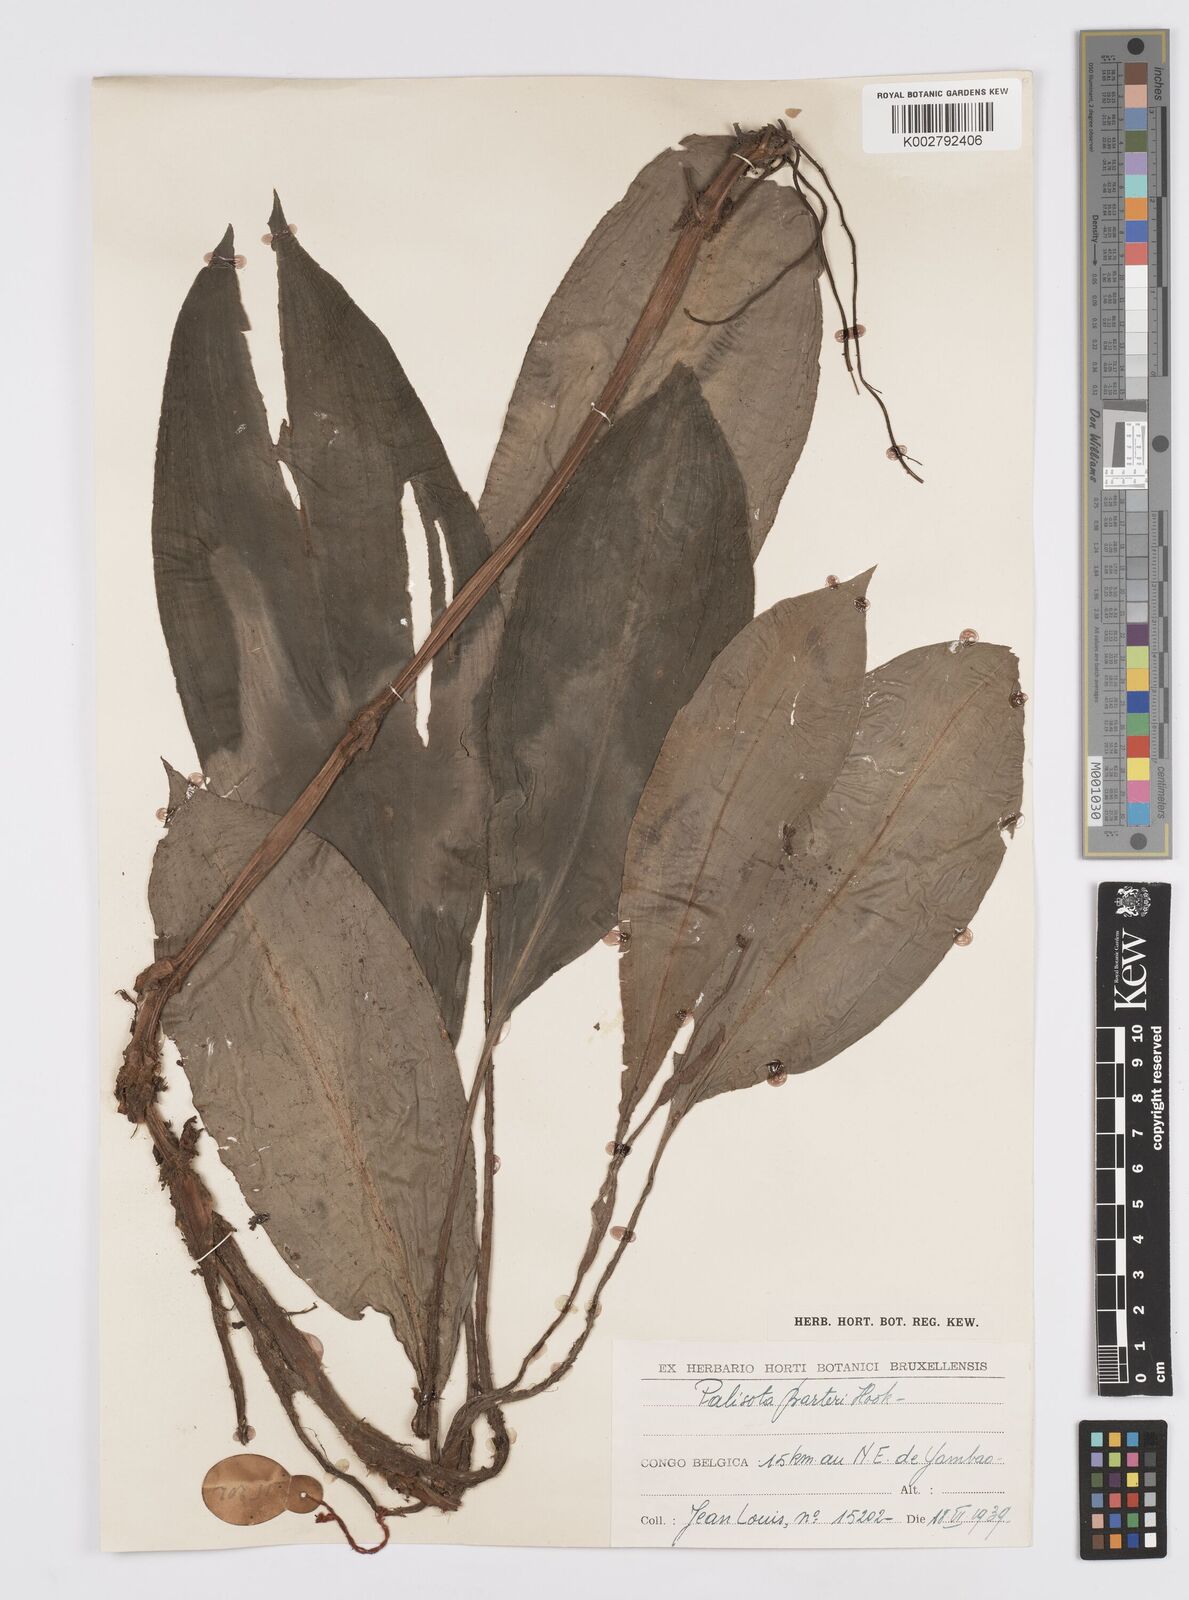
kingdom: Plantae
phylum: Tracheophyta
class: Liliopsida
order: Commelinales
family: Commelinaceae
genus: Palisota
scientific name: Palisota barteri
